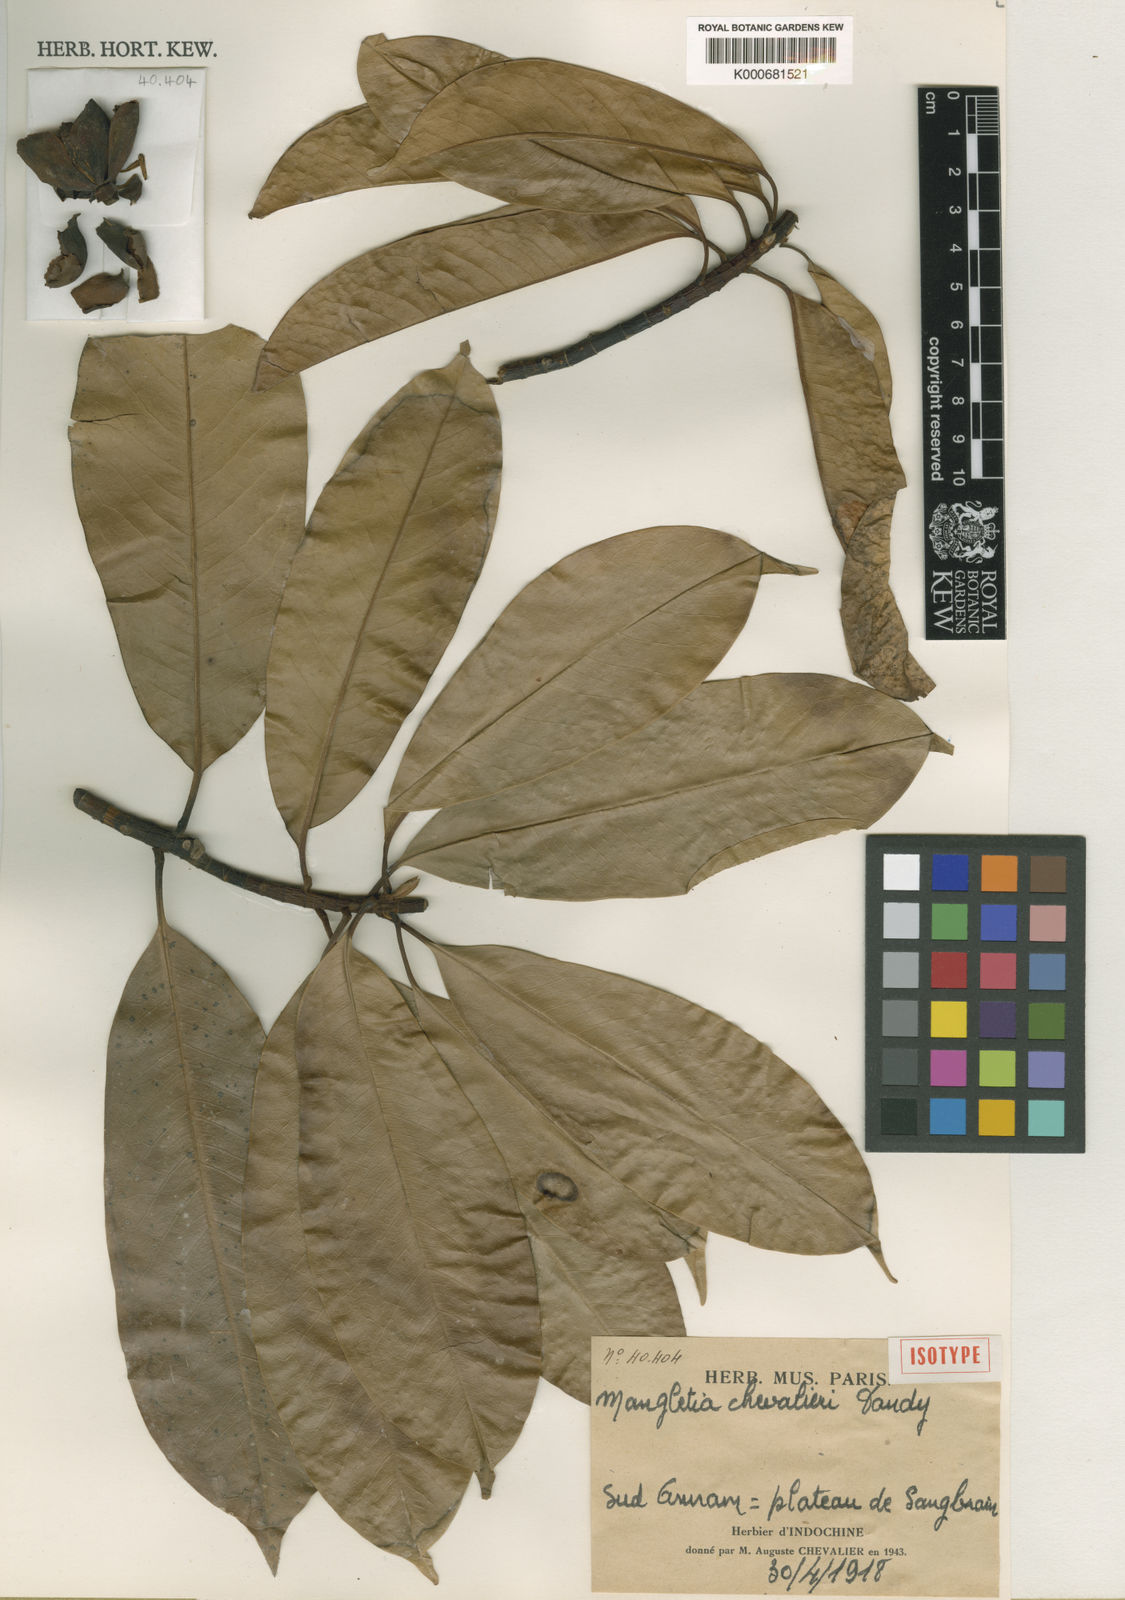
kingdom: Plantae
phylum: Tracheophyta
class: Magnoliopsida
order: Magnoliales
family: Magnoliaceae
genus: Magnolia
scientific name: Magnolia chevalieri
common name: Southern peace lotus tree
